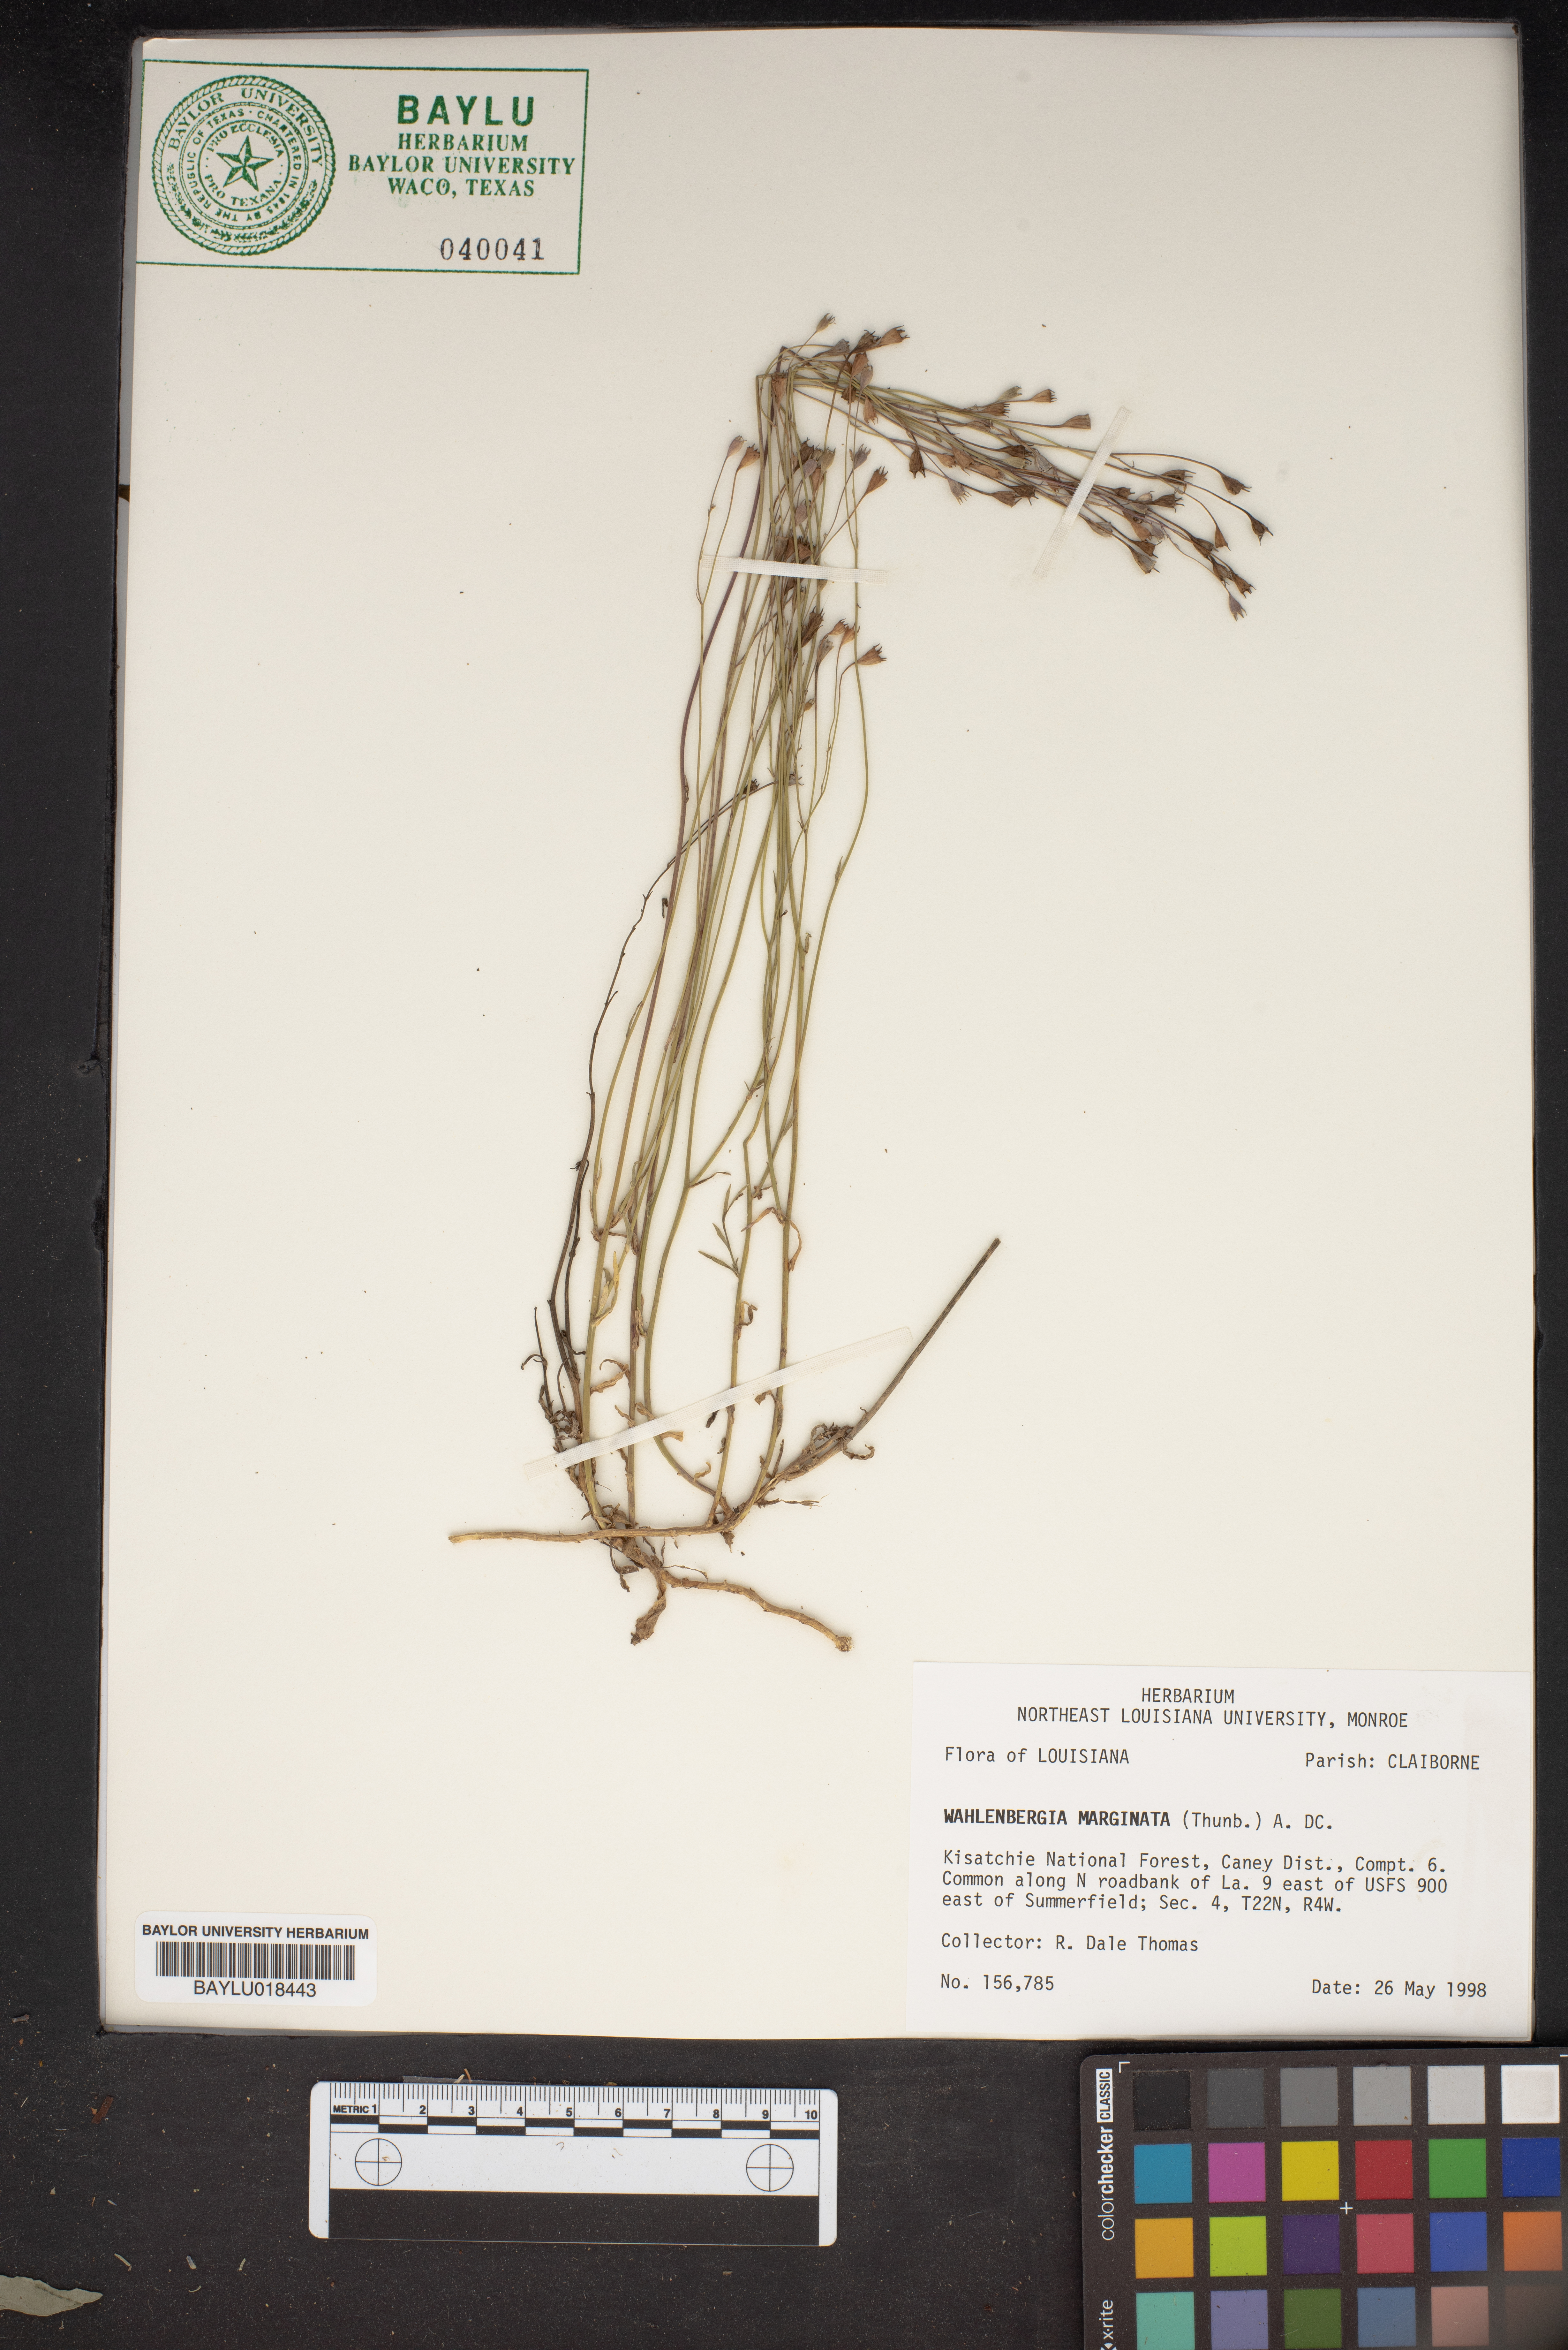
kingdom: Plantae
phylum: Tracheophyta
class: Magnoliopsida
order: Asterales
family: Campanulaceae
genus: Wahlenbergia
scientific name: Wahlenbergia marginata
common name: Southern rockbell
